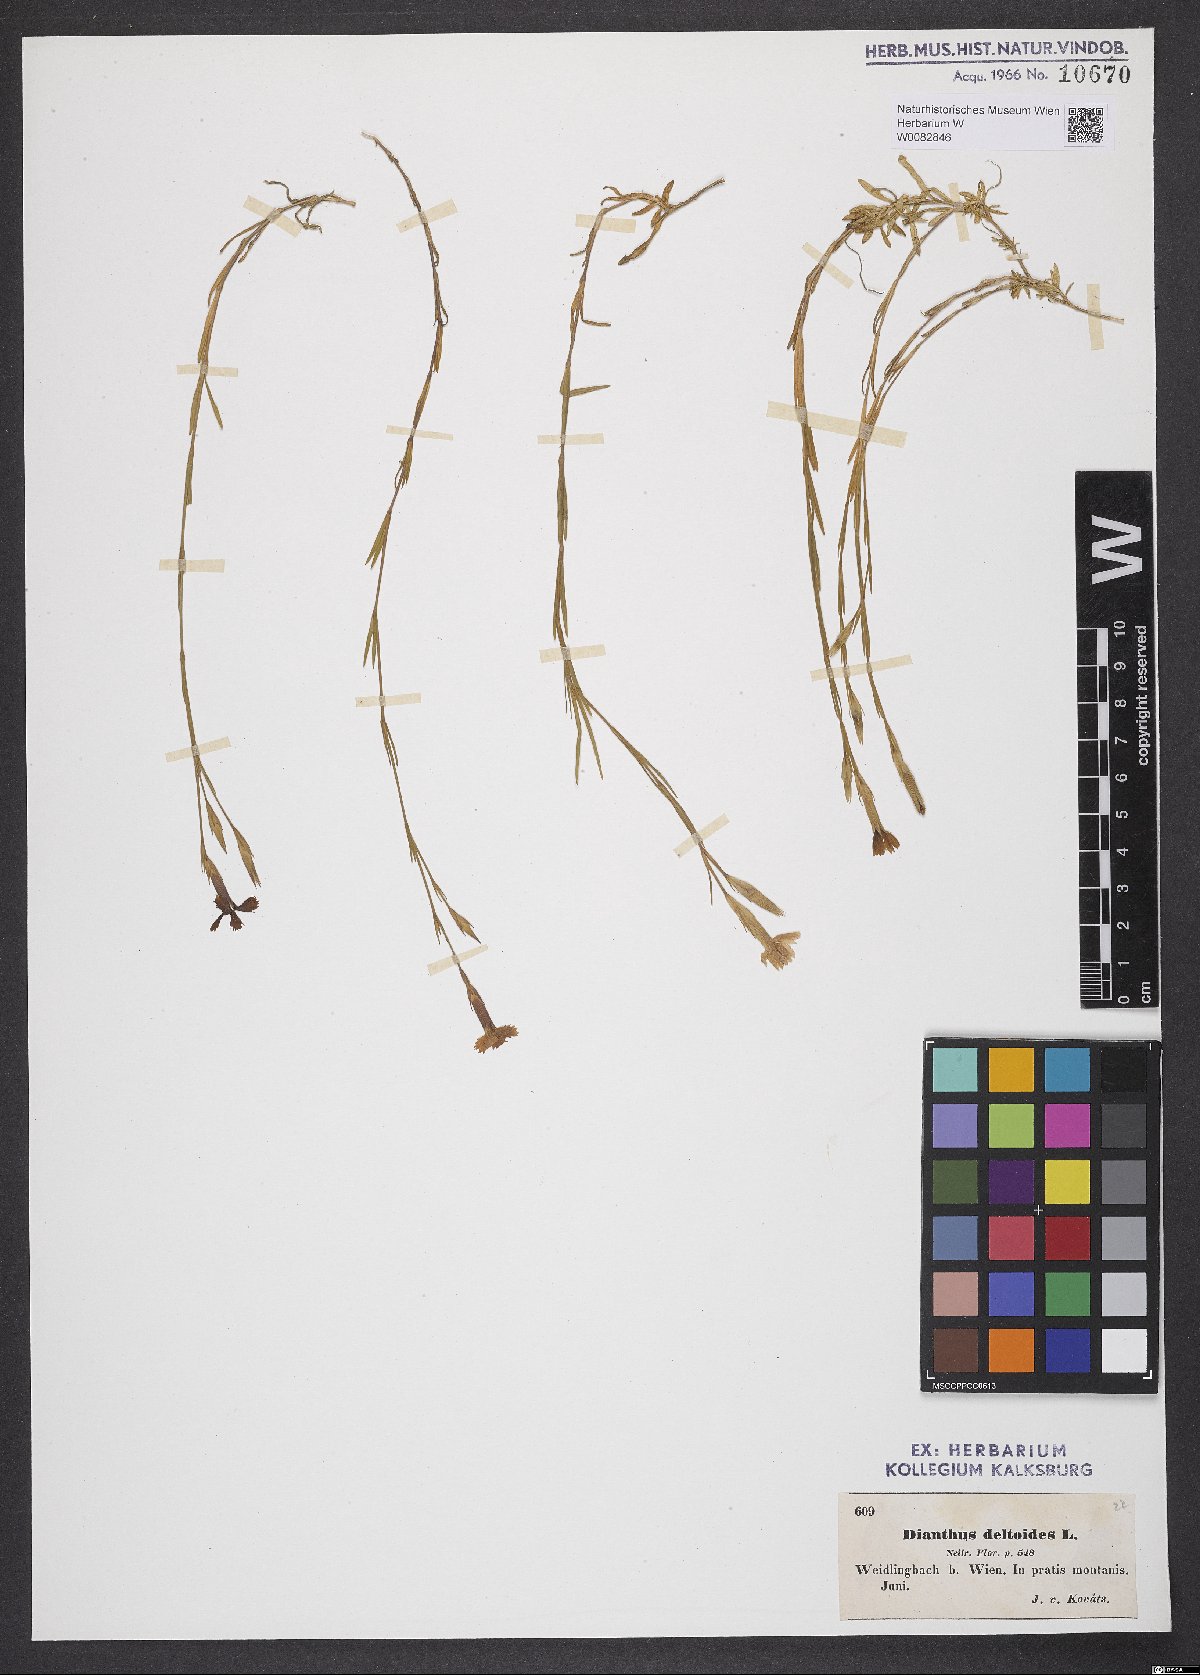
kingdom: Plantae
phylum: Tracheophyta
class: Magnoliopsida
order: Caryophyllales
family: Caryophyllaceae
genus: Dianthus
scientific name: Dianthus deltoides
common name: Maiden pink
